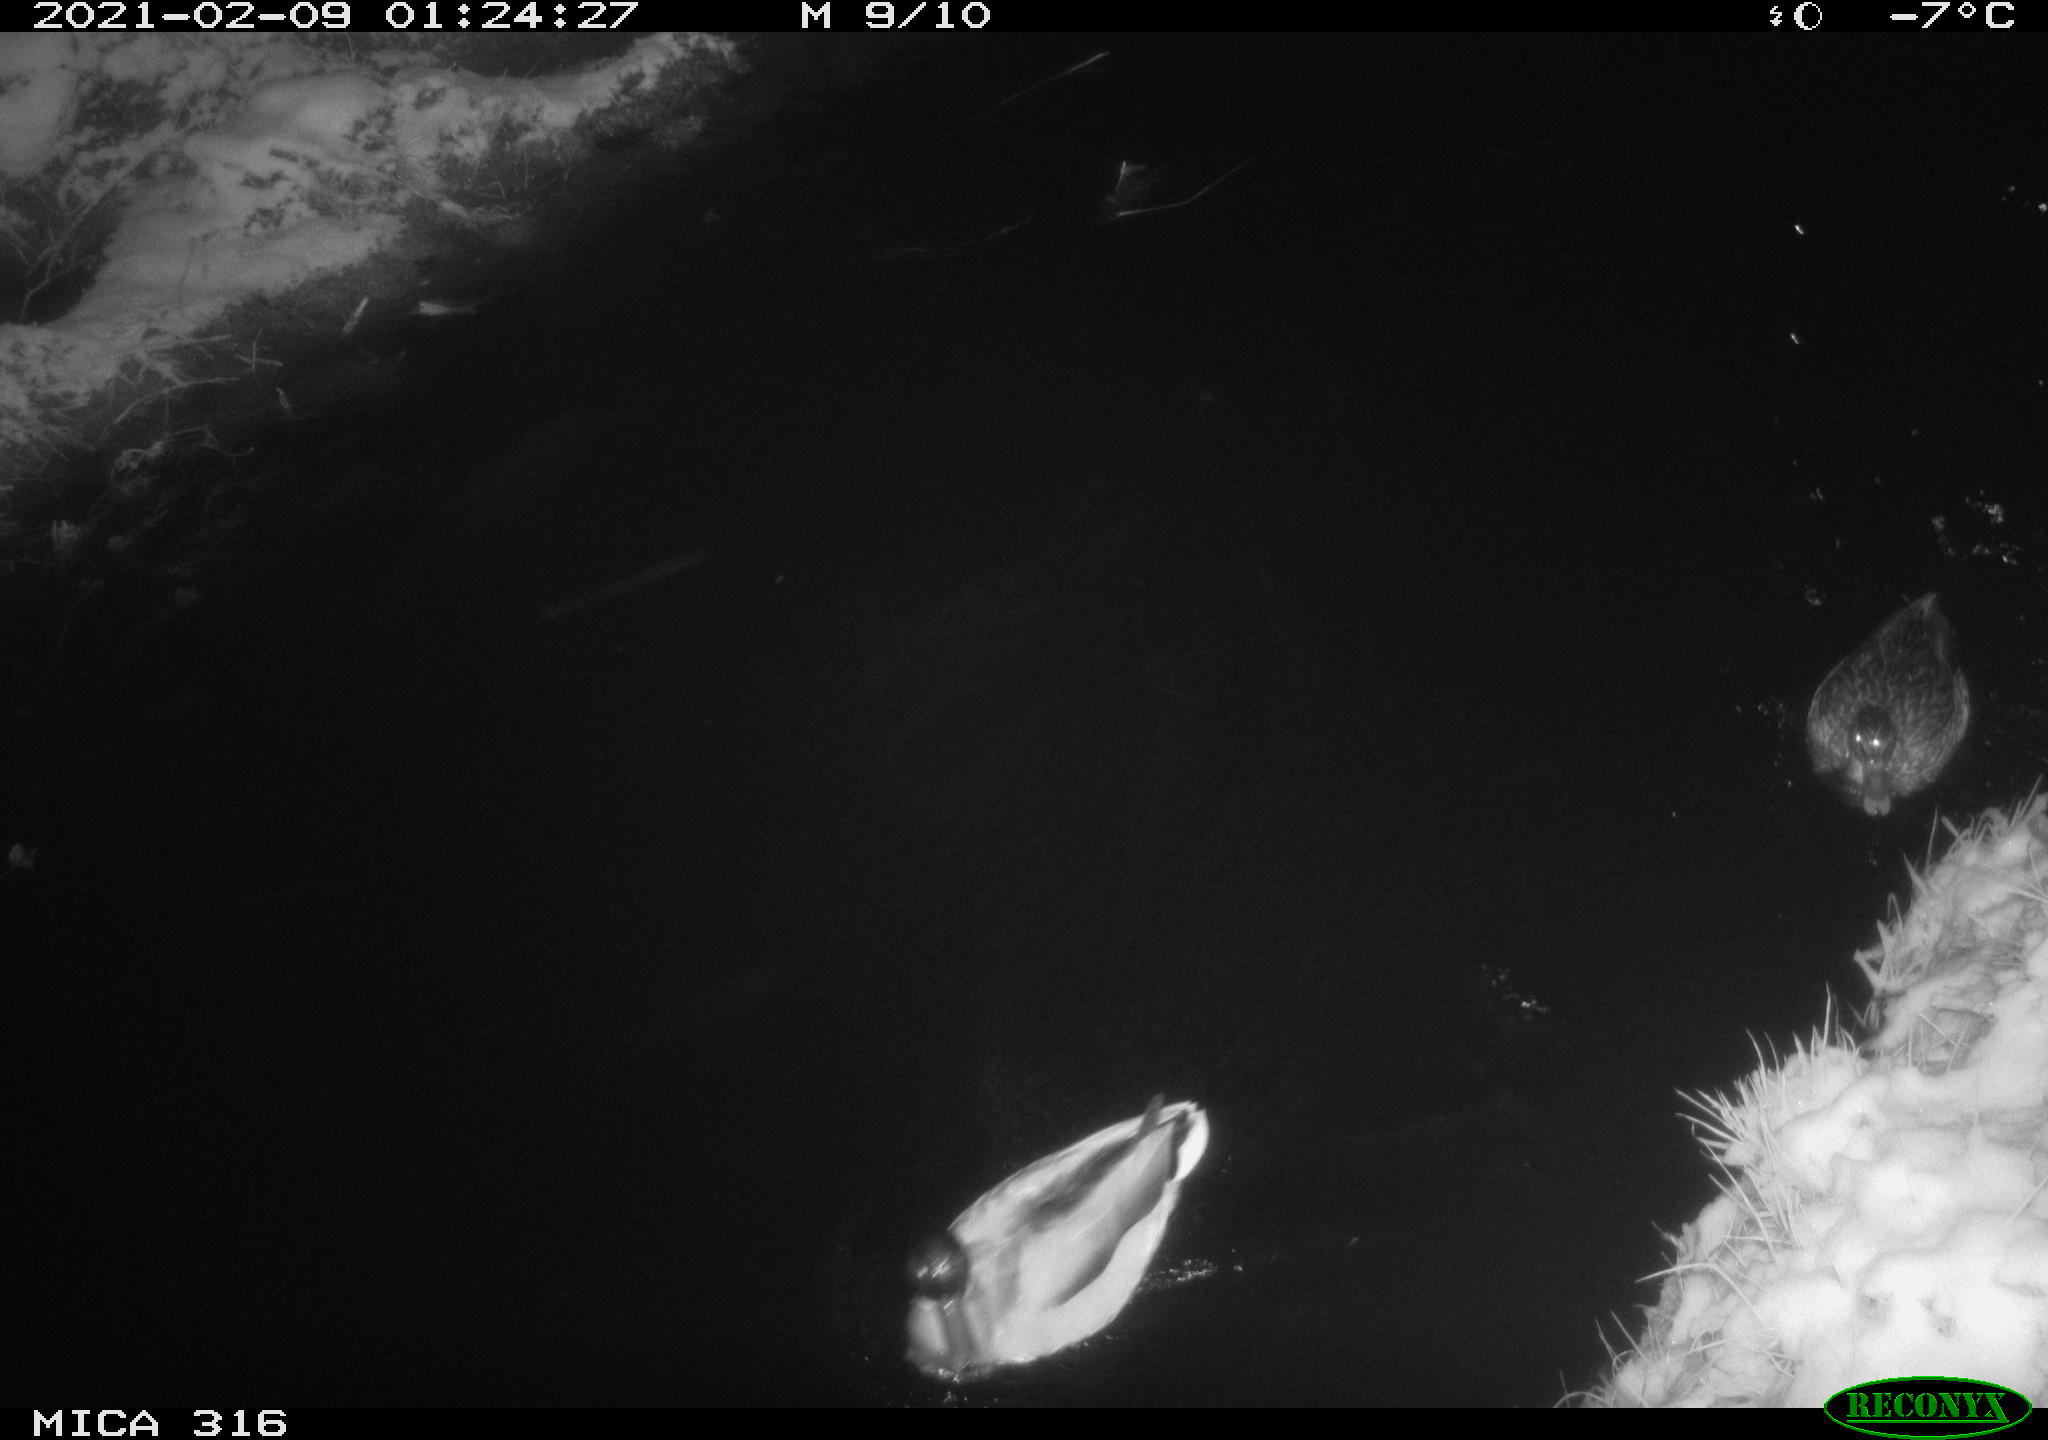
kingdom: Animalia
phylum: Chordata
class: Aves
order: Anseriformes
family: Anatidae
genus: Anas
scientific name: Anas platyrhynchos
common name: Mallard
